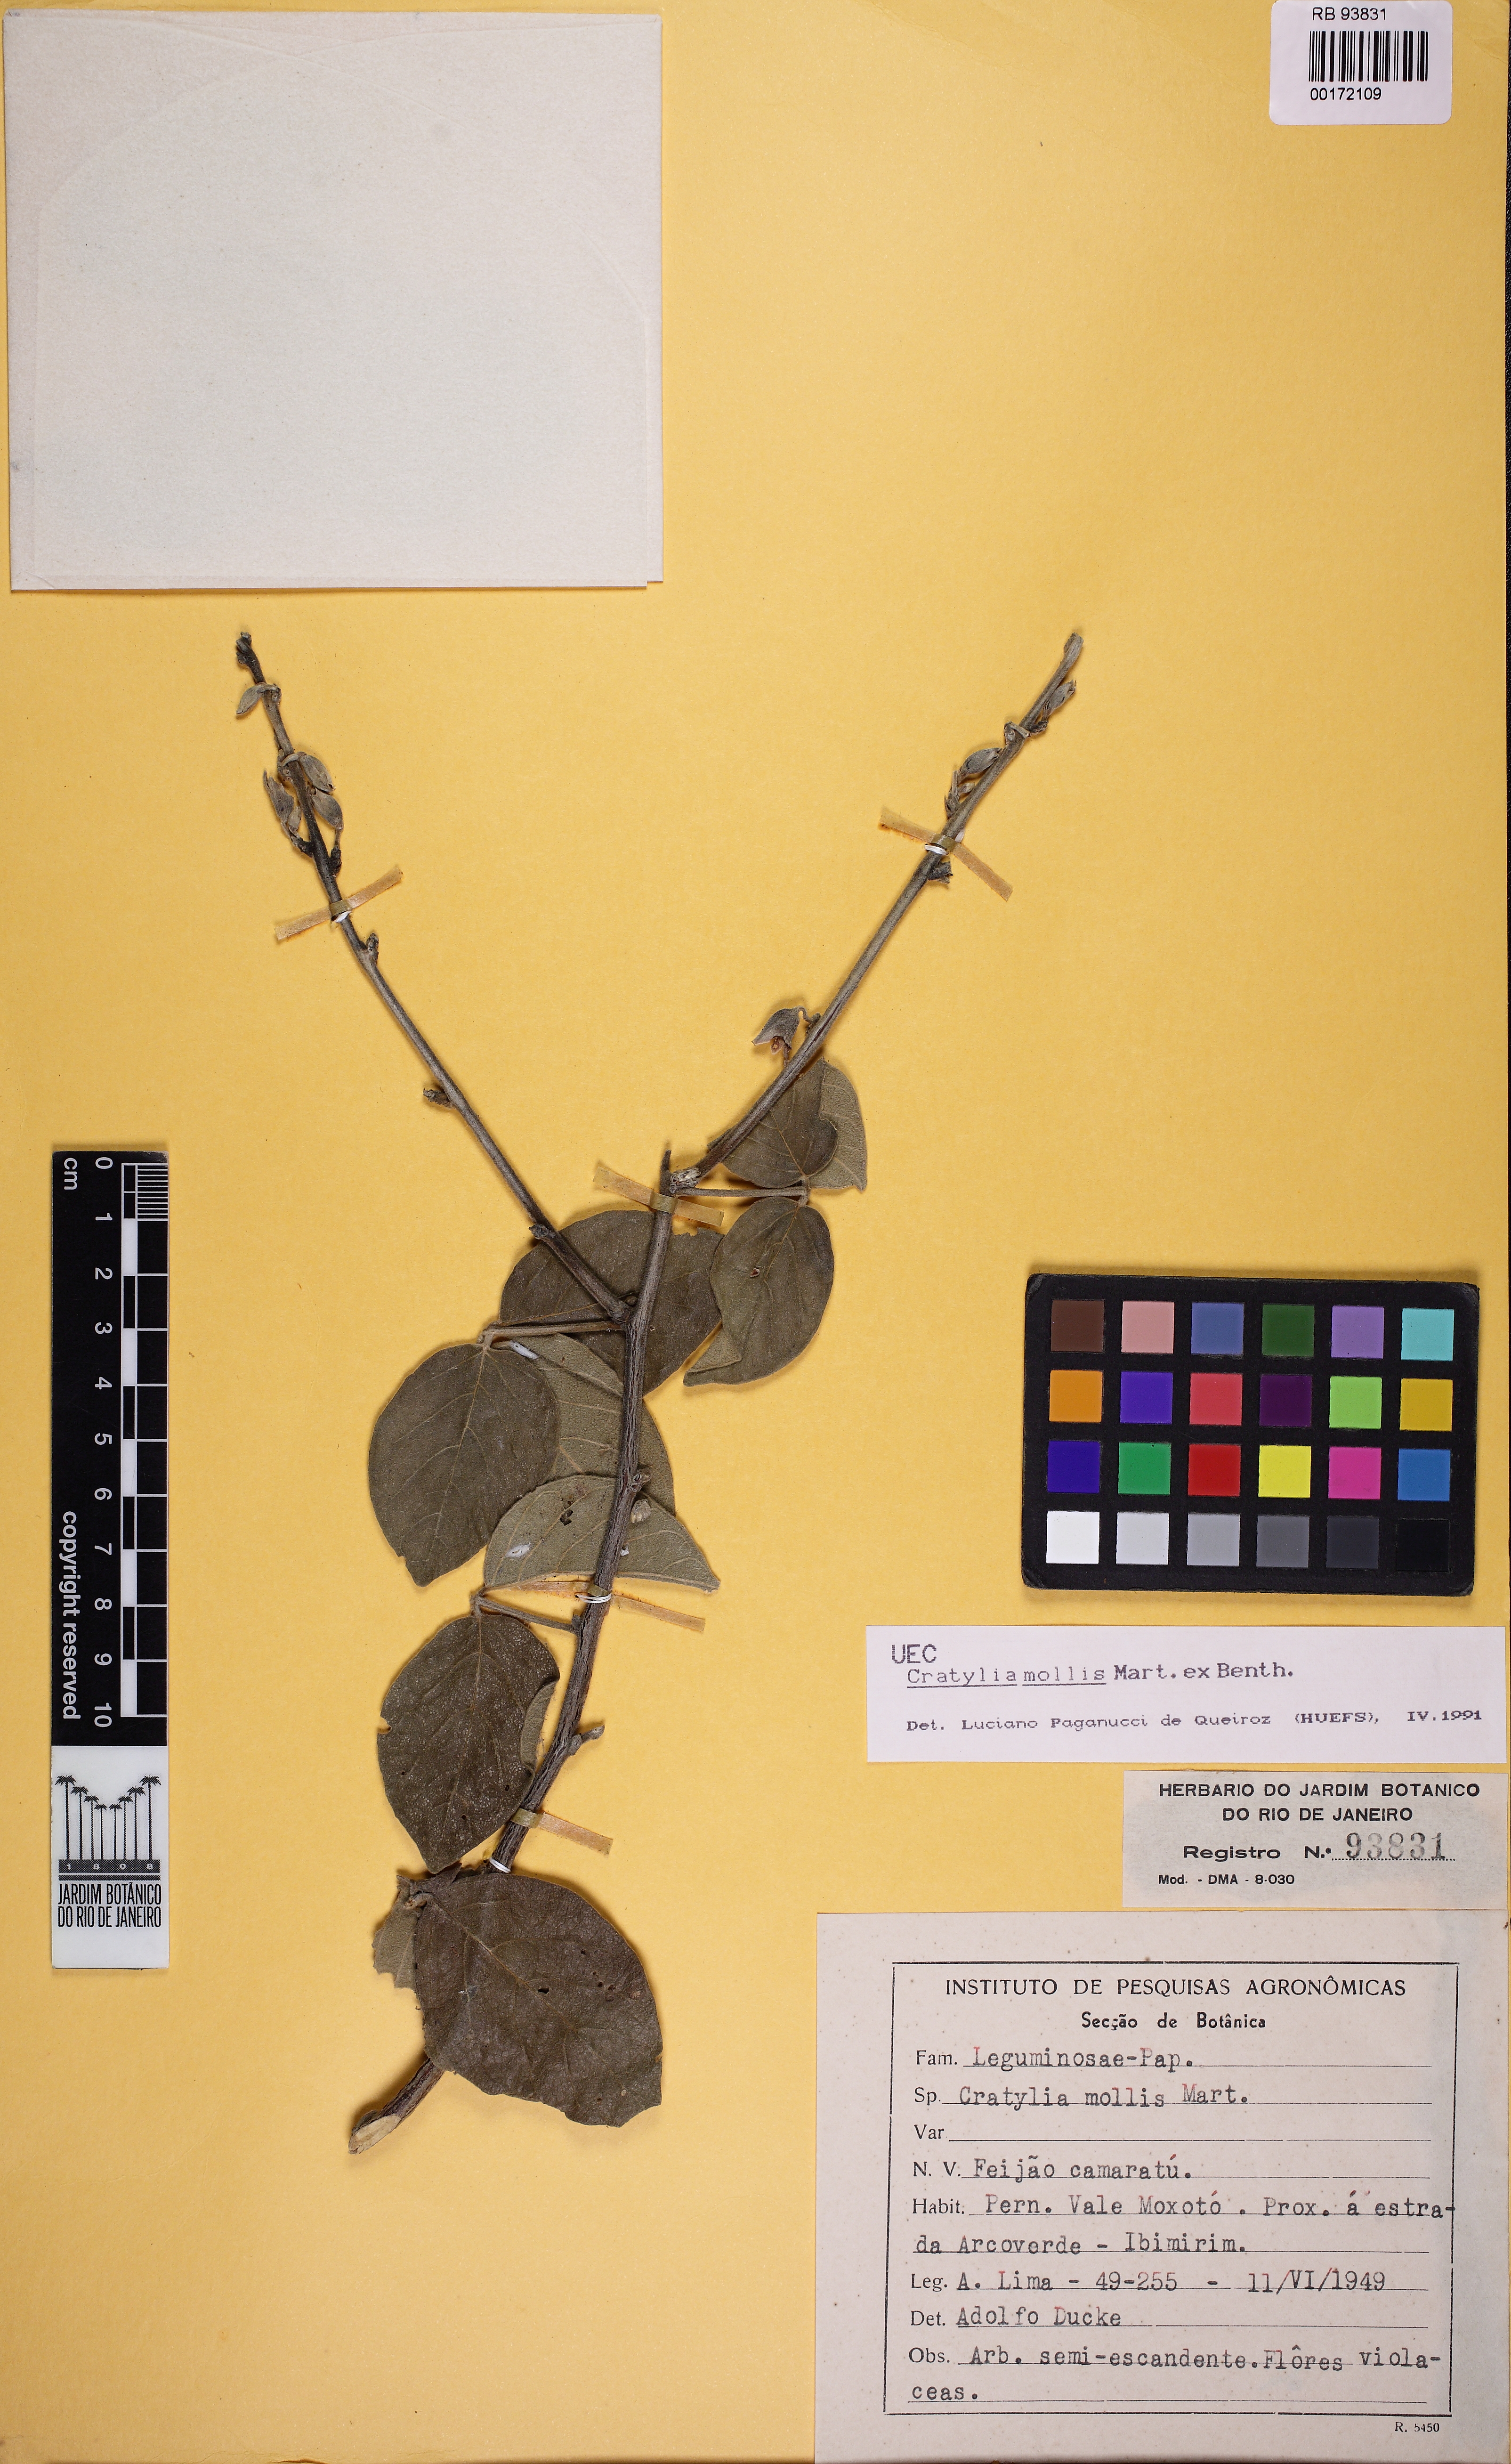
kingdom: Plantae
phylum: Tracheophyta
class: Magnoliopsida
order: Fabales
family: Fabaceae
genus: Cratylia
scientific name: Cratylia mollis
